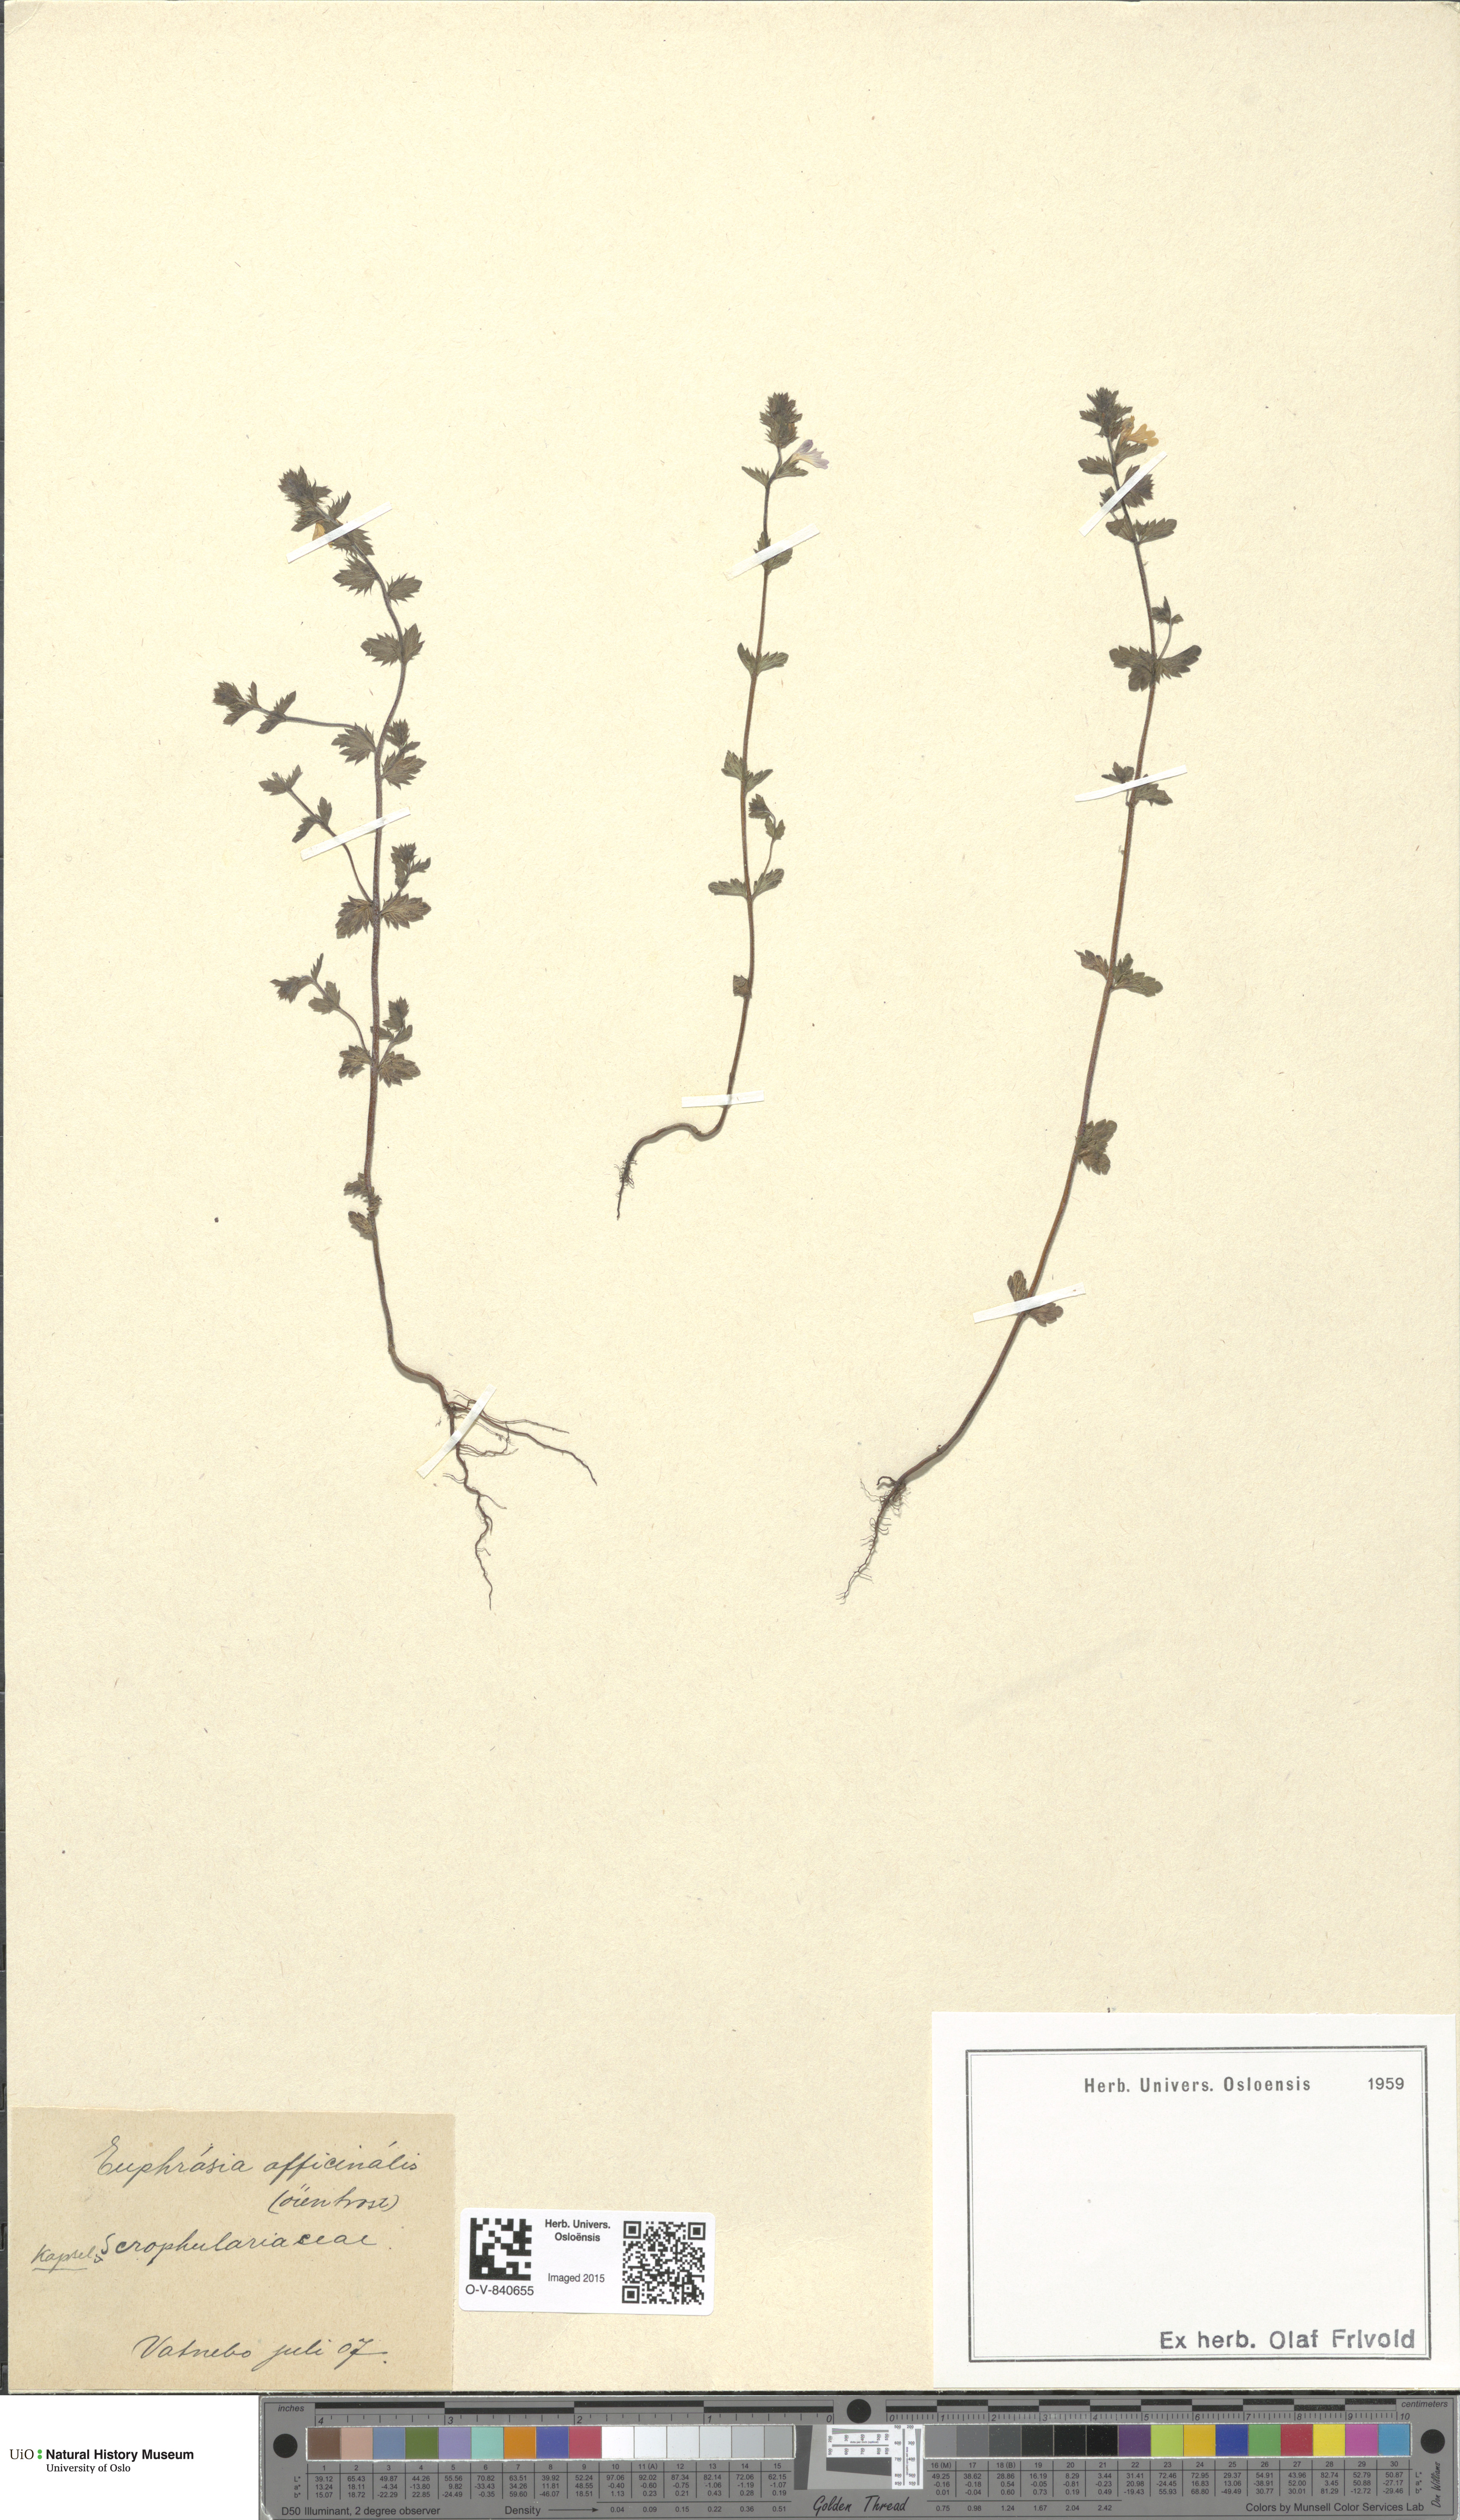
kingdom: Plantae
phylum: Tracheophyta
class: Magnoliopsida
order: Lamiales
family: Orobanchaceae
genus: Euphrasia
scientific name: Euphrasia stricta
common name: Drug eyebright
